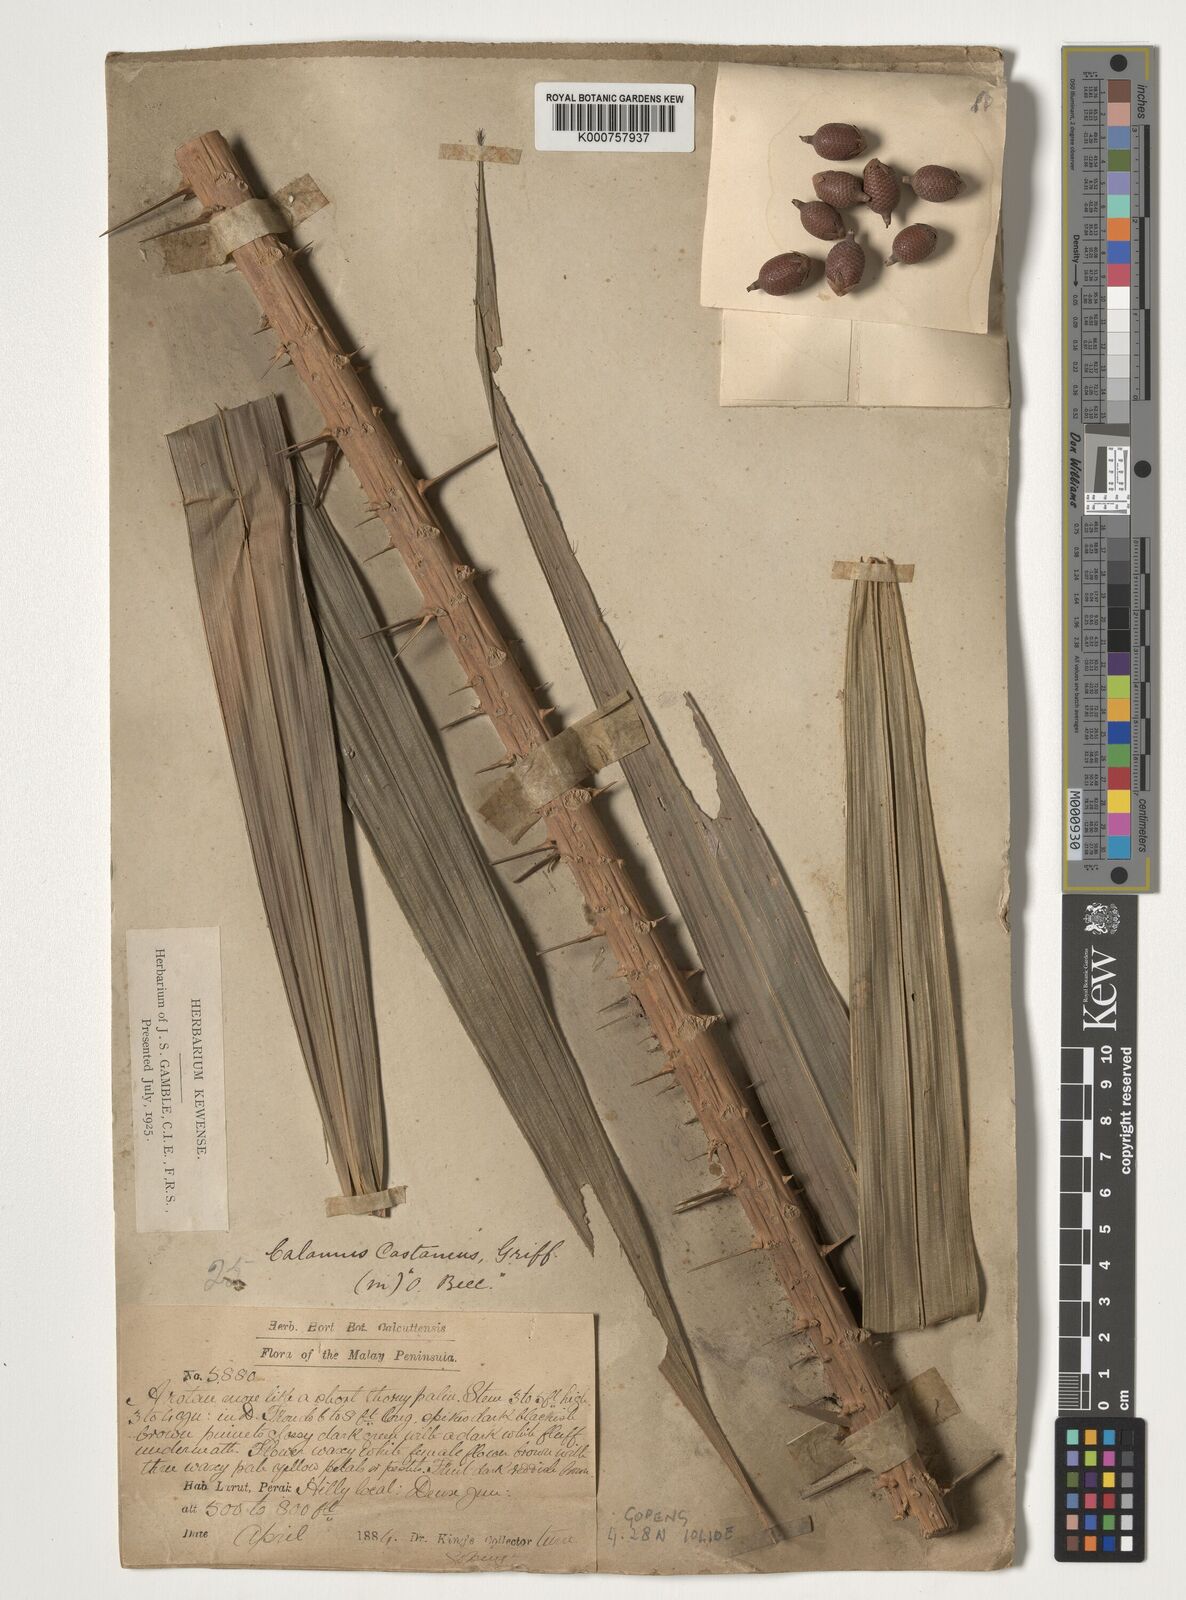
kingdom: Plantae
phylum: Tracheophyta
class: Liliopsida
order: Arecales
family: Arecaceae
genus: Calamus
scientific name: Calamus castaneus
